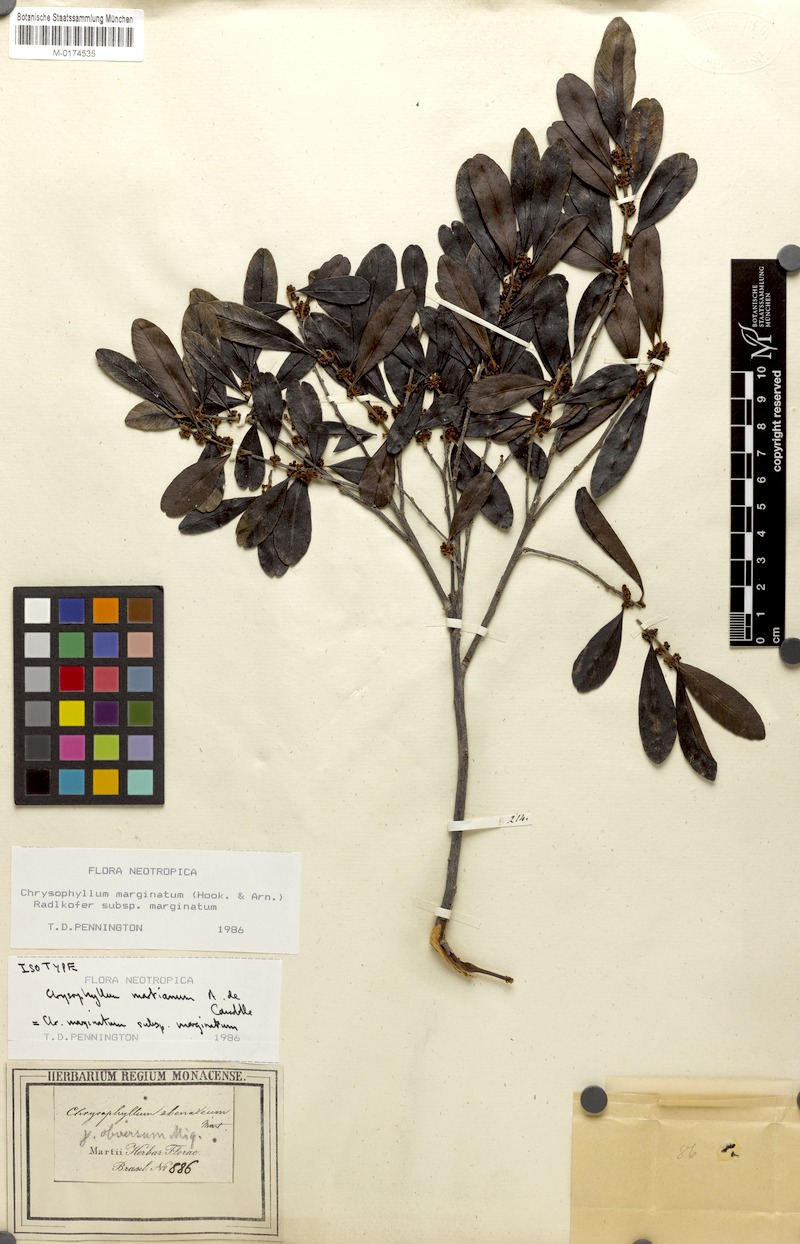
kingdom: Plantae
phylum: Tracheophyta
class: Magnoliopsida
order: Ericales
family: Sapotaceae
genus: Chrysophyllum
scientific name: Chrysophyllum marginatum
